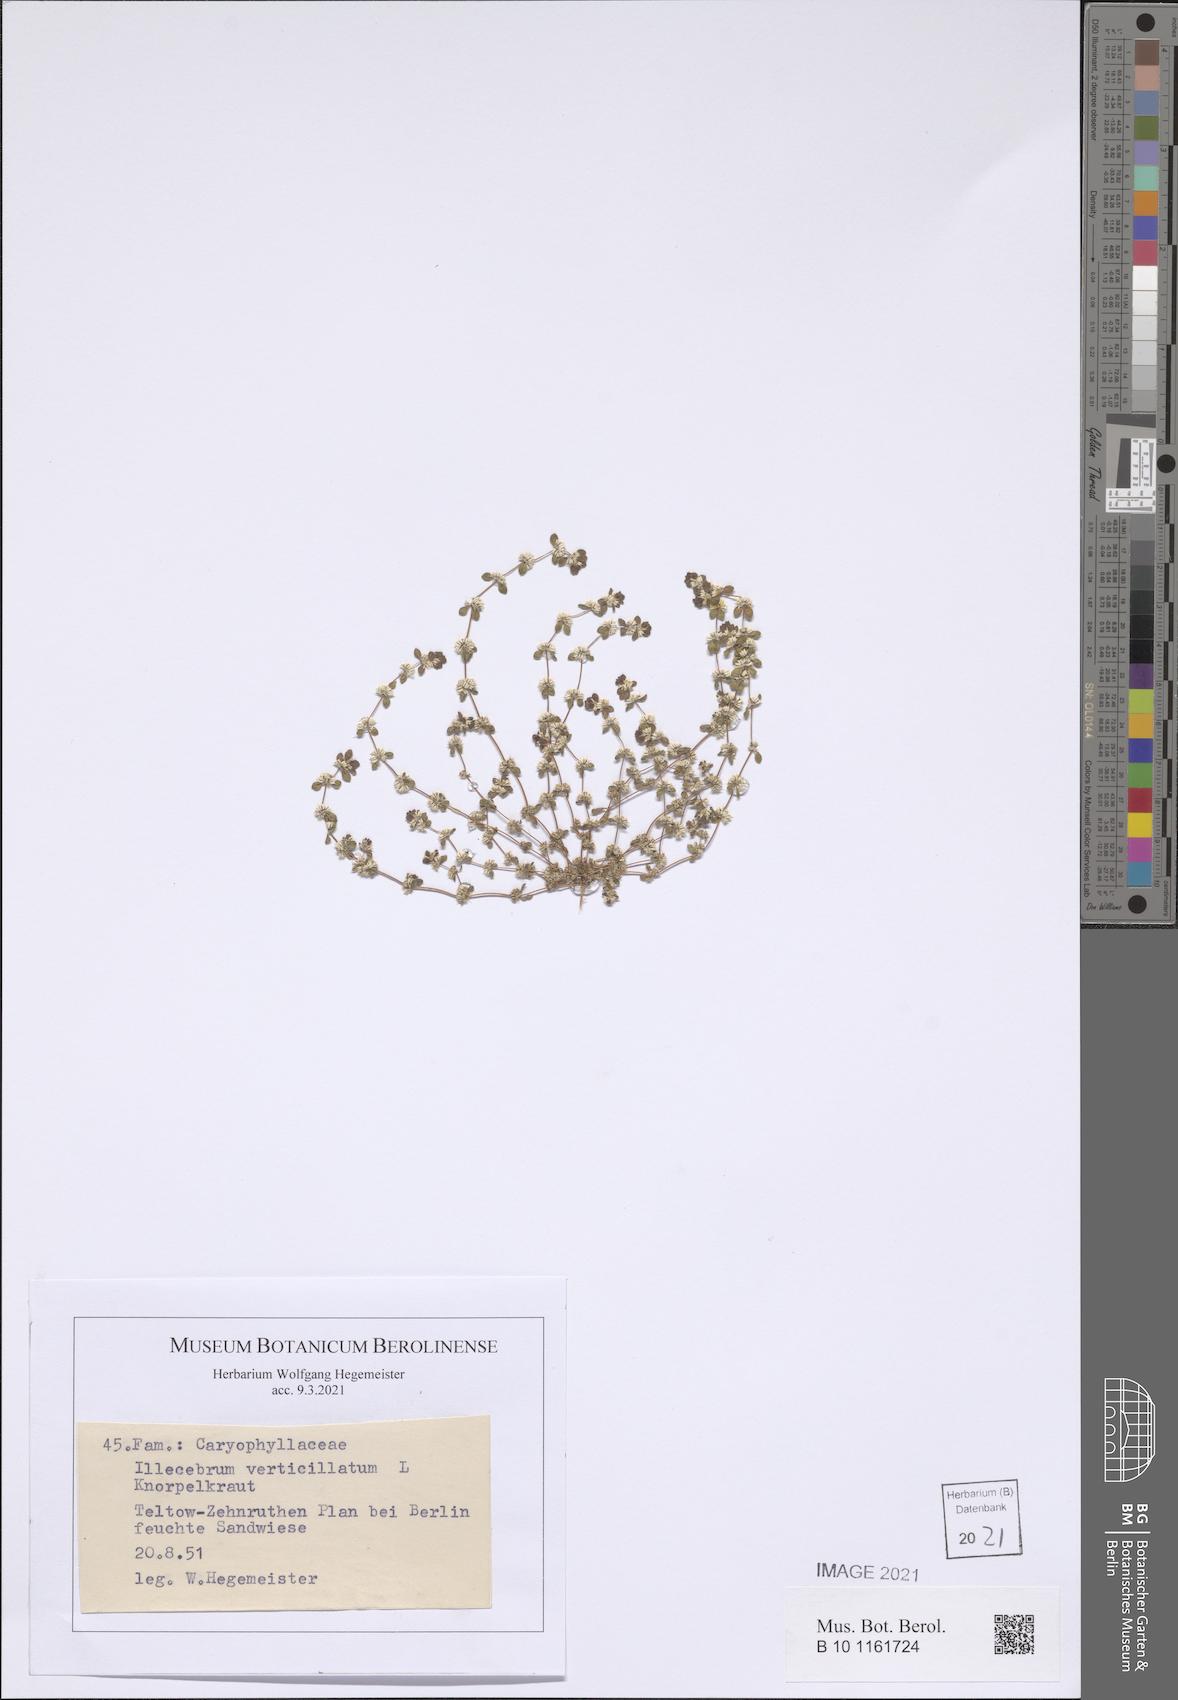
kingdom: Plantae
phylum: Tracheophyta
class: Magnoliopsida
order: Caryophyllales
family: Caryophyllaceae
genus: Illecebrum
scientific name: Illecebrum verticillatum
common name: Coral necklace
